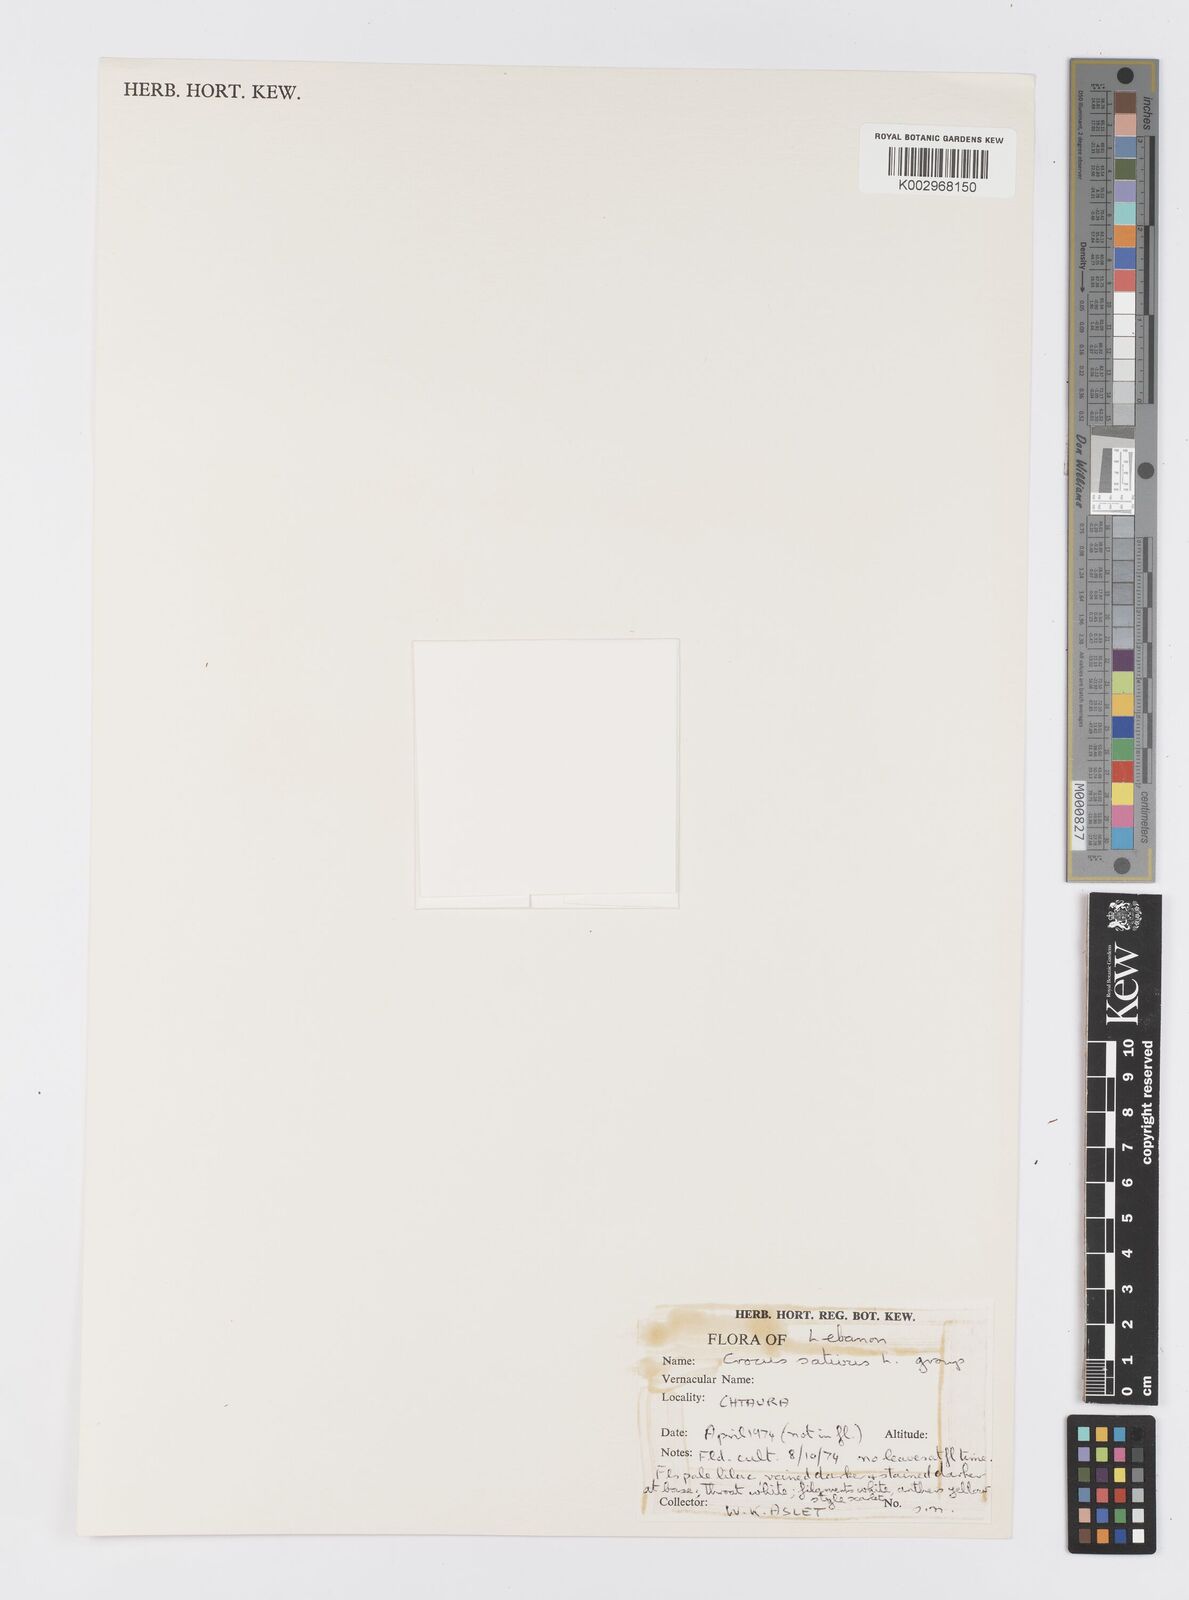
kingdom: Plantae
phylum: Tracheophyta
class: Liliopsida
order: Asparagales
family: Iridaceae
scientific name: Iridaceae
